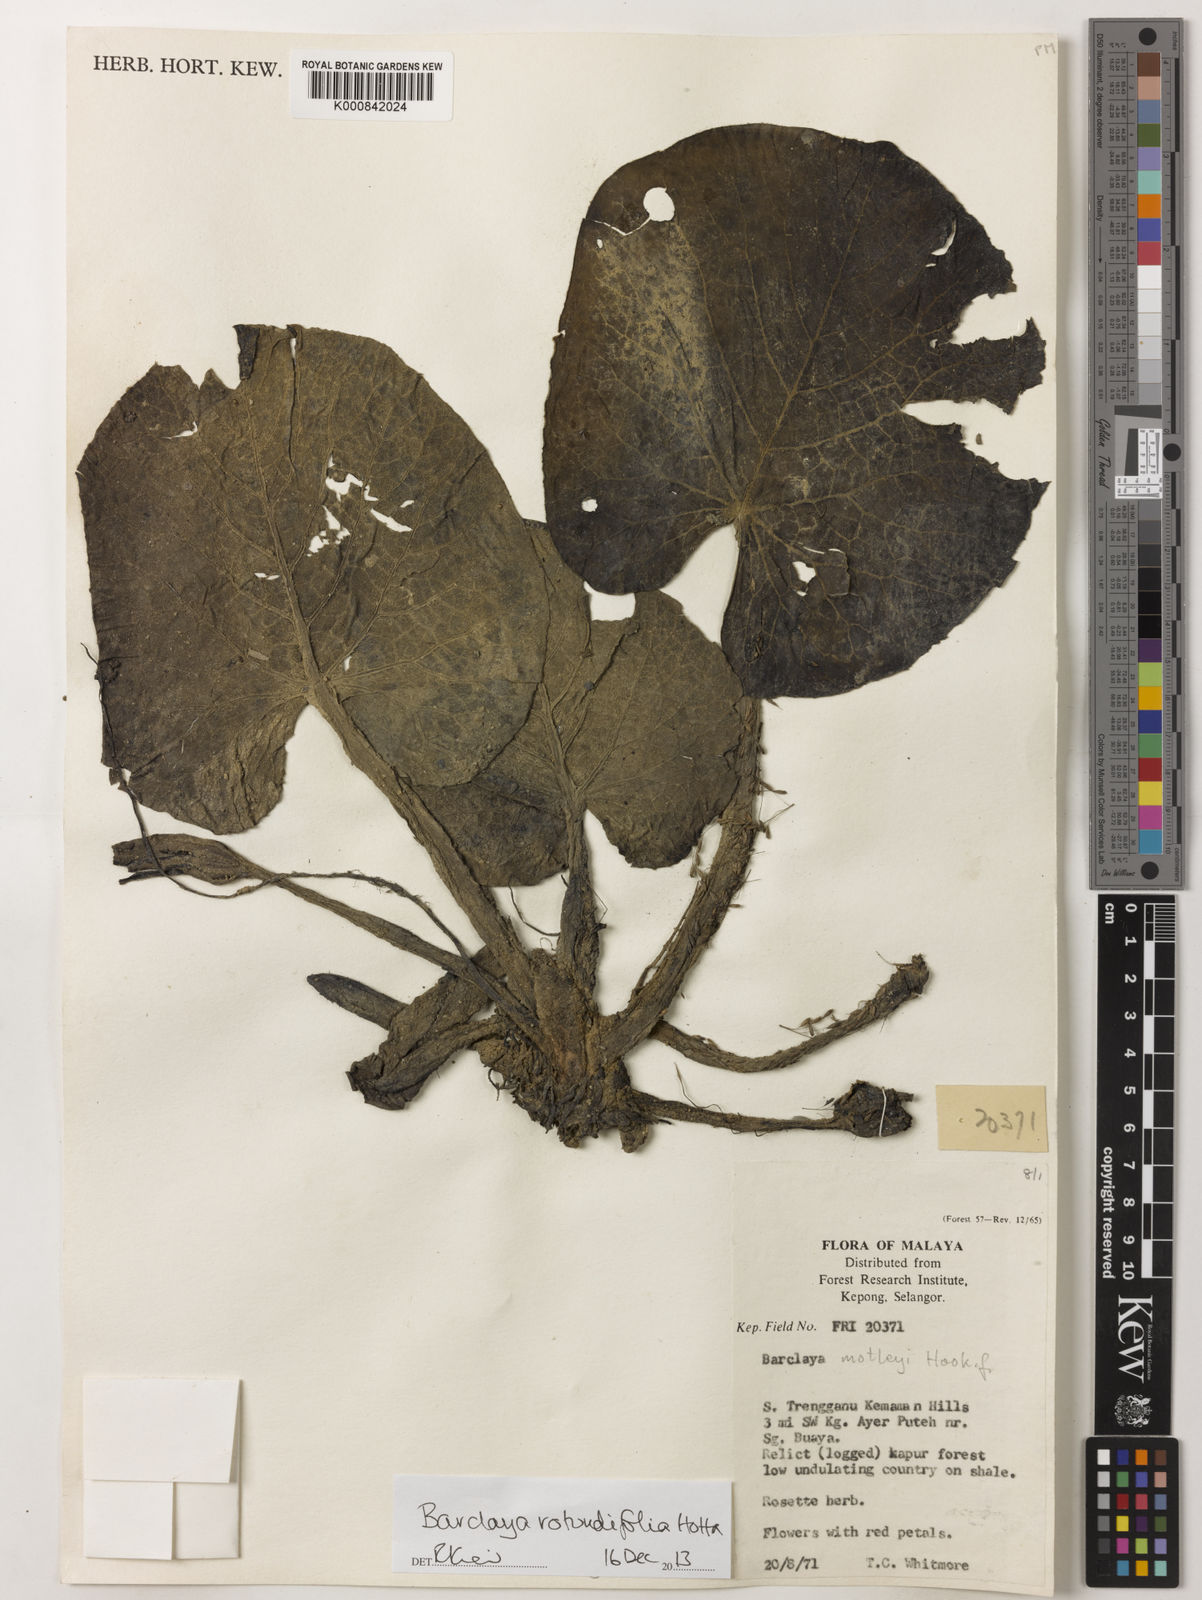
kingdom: Plantae
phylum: Tracheophyta
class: Magnoliopsida
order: Nymphaeales
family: Nymphaeaceae
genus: Barclaya
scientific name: Barclaya rotundifolia
